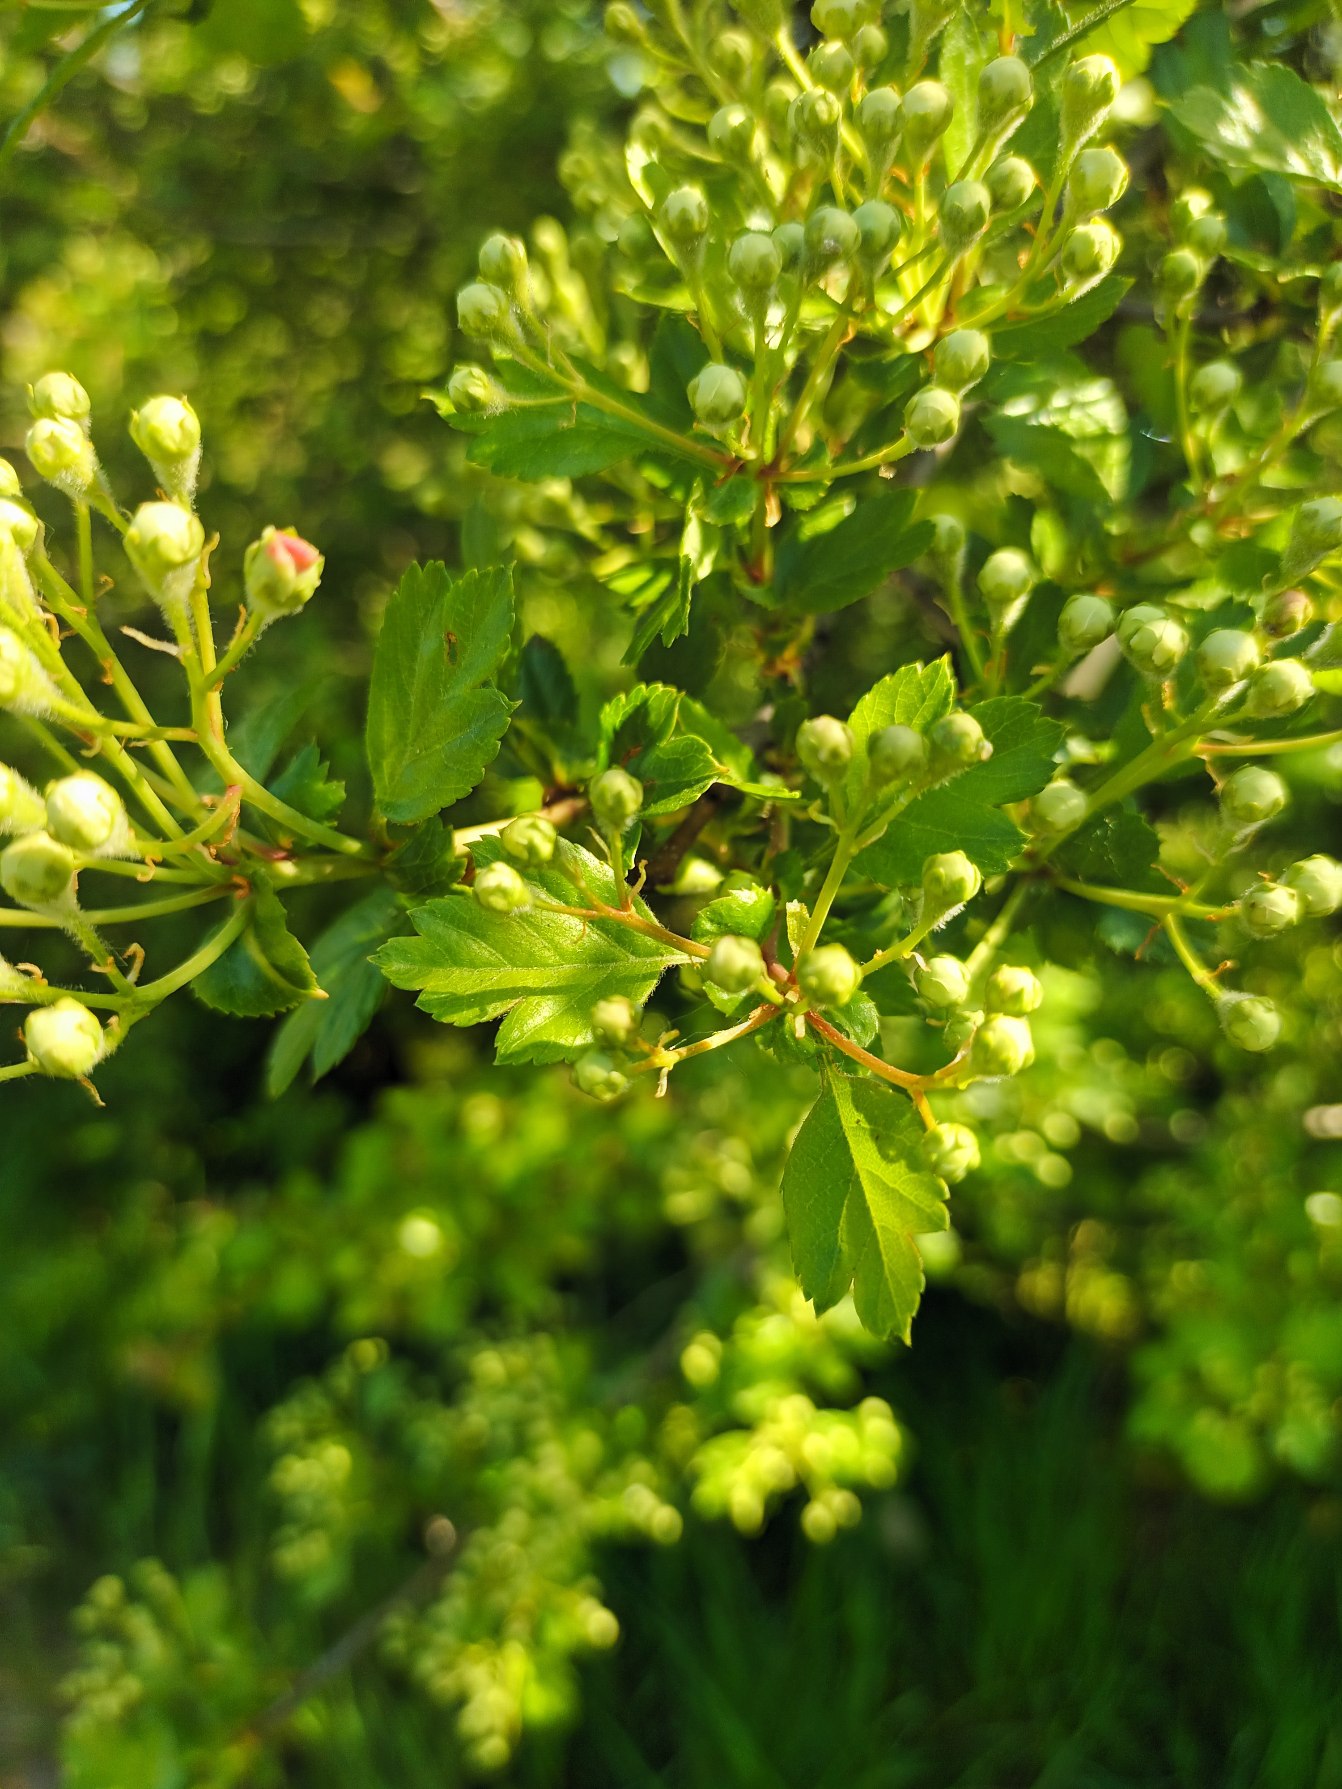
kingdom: Plantae
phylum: Tracheophyta
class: Magnoliopsida
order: Rosales
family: Rosaceae
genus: Crataegus
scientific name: Crataegus macrocarpa
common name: Almindelig hvidtjørn × koral-hvidtjørn
